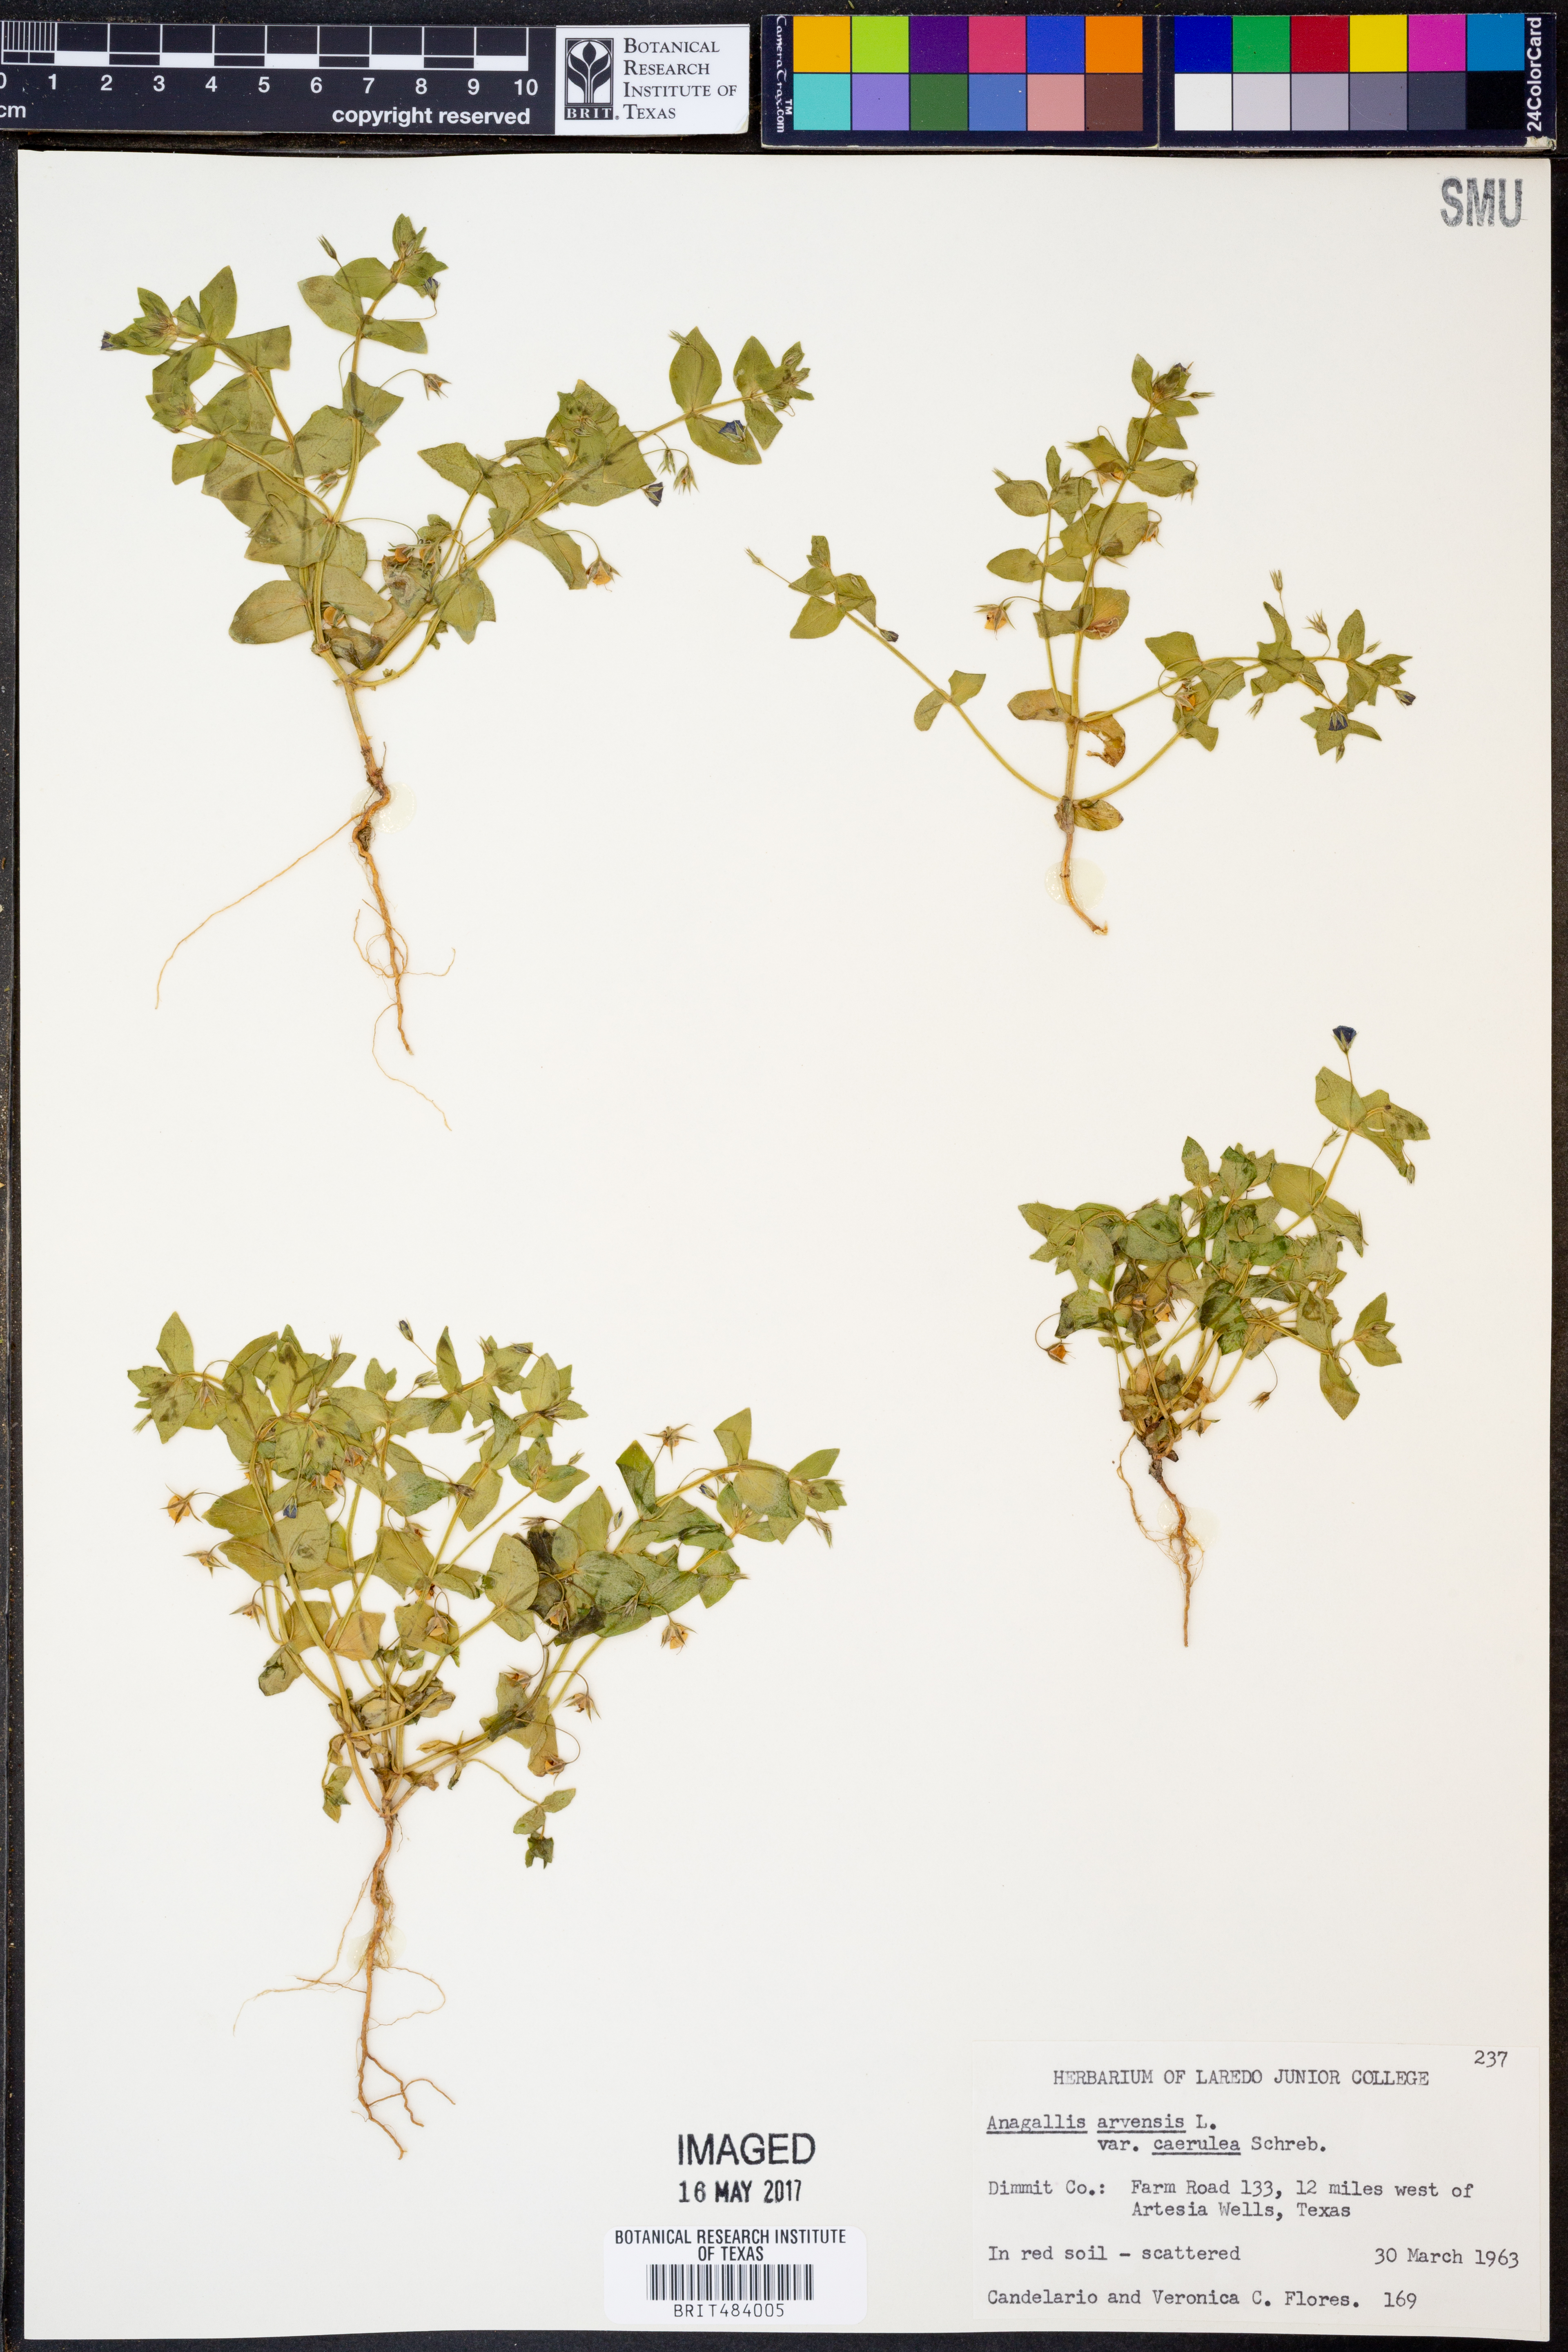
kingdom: Plantae
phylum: Tracheophyta
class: Magnoliopsida
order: Ericales
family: Primulaceae
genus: Lysimachia
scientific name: Lysimachia foemina
